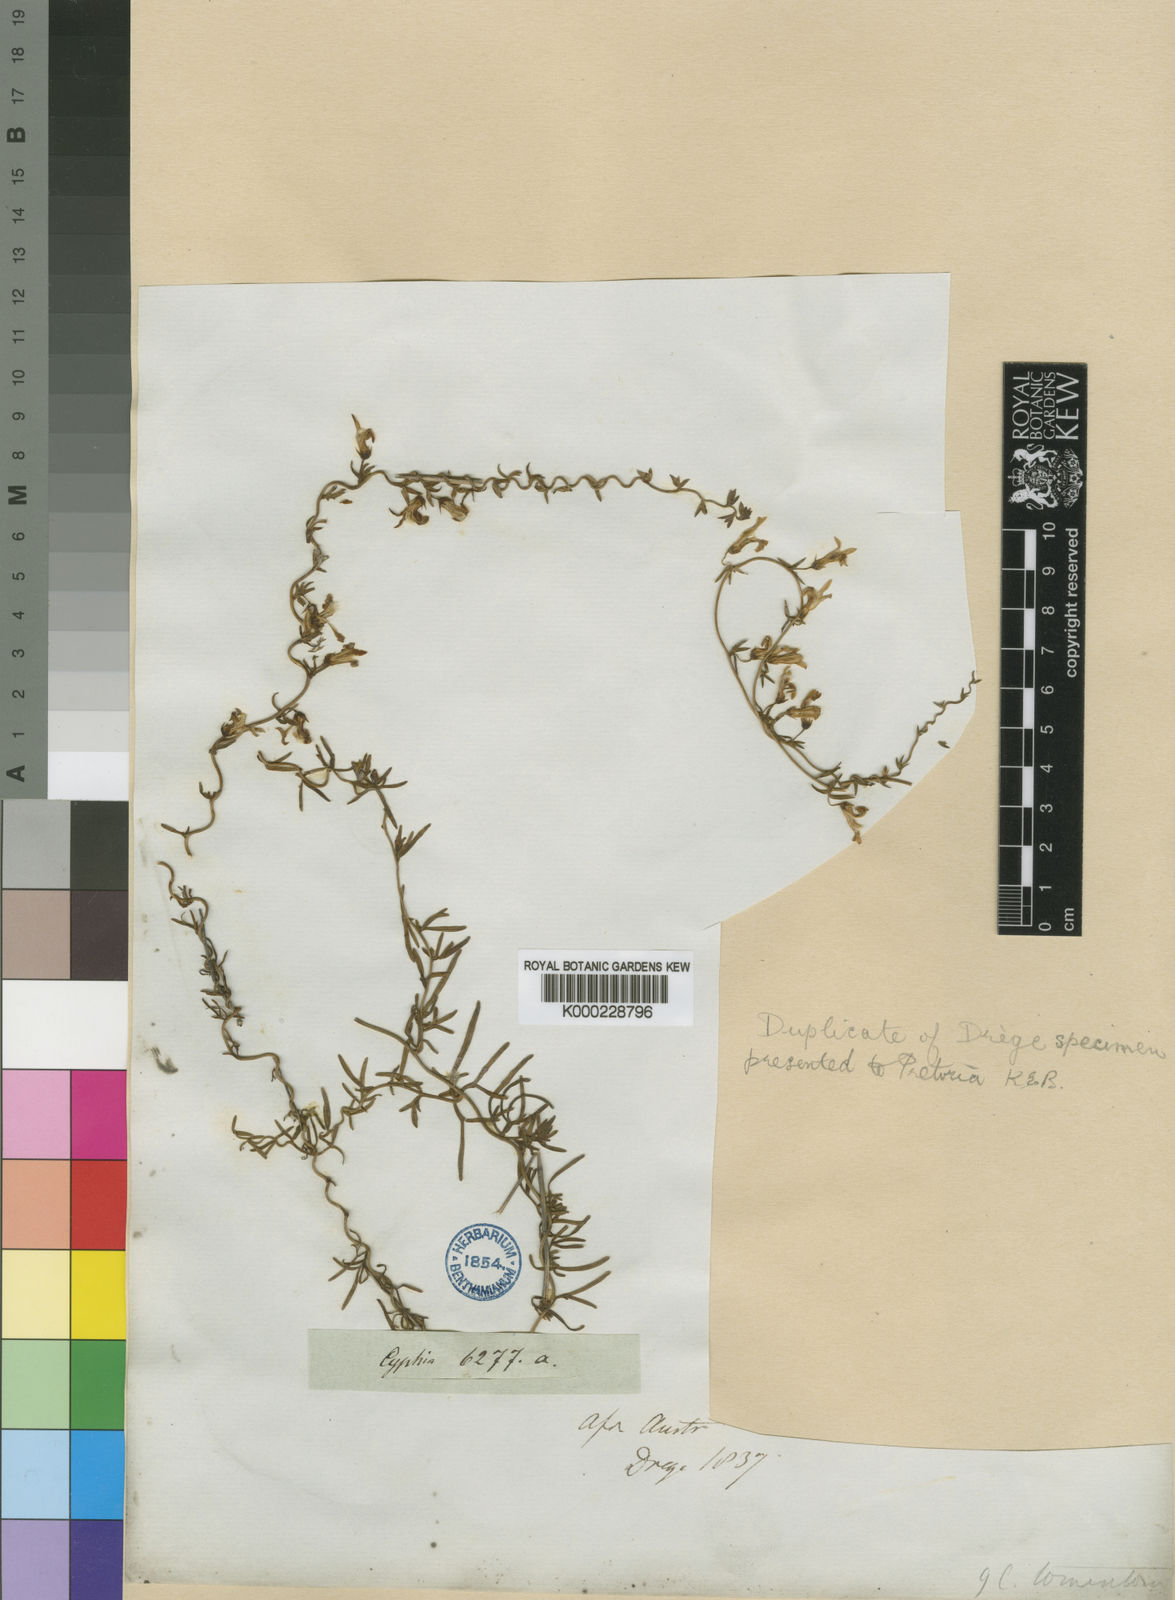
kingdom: Plantae
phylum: Tracheophyta
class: Magnoliopsida
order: Asterales
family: Campanulaceae
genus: Cyphia
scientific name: Cyphia digitata
